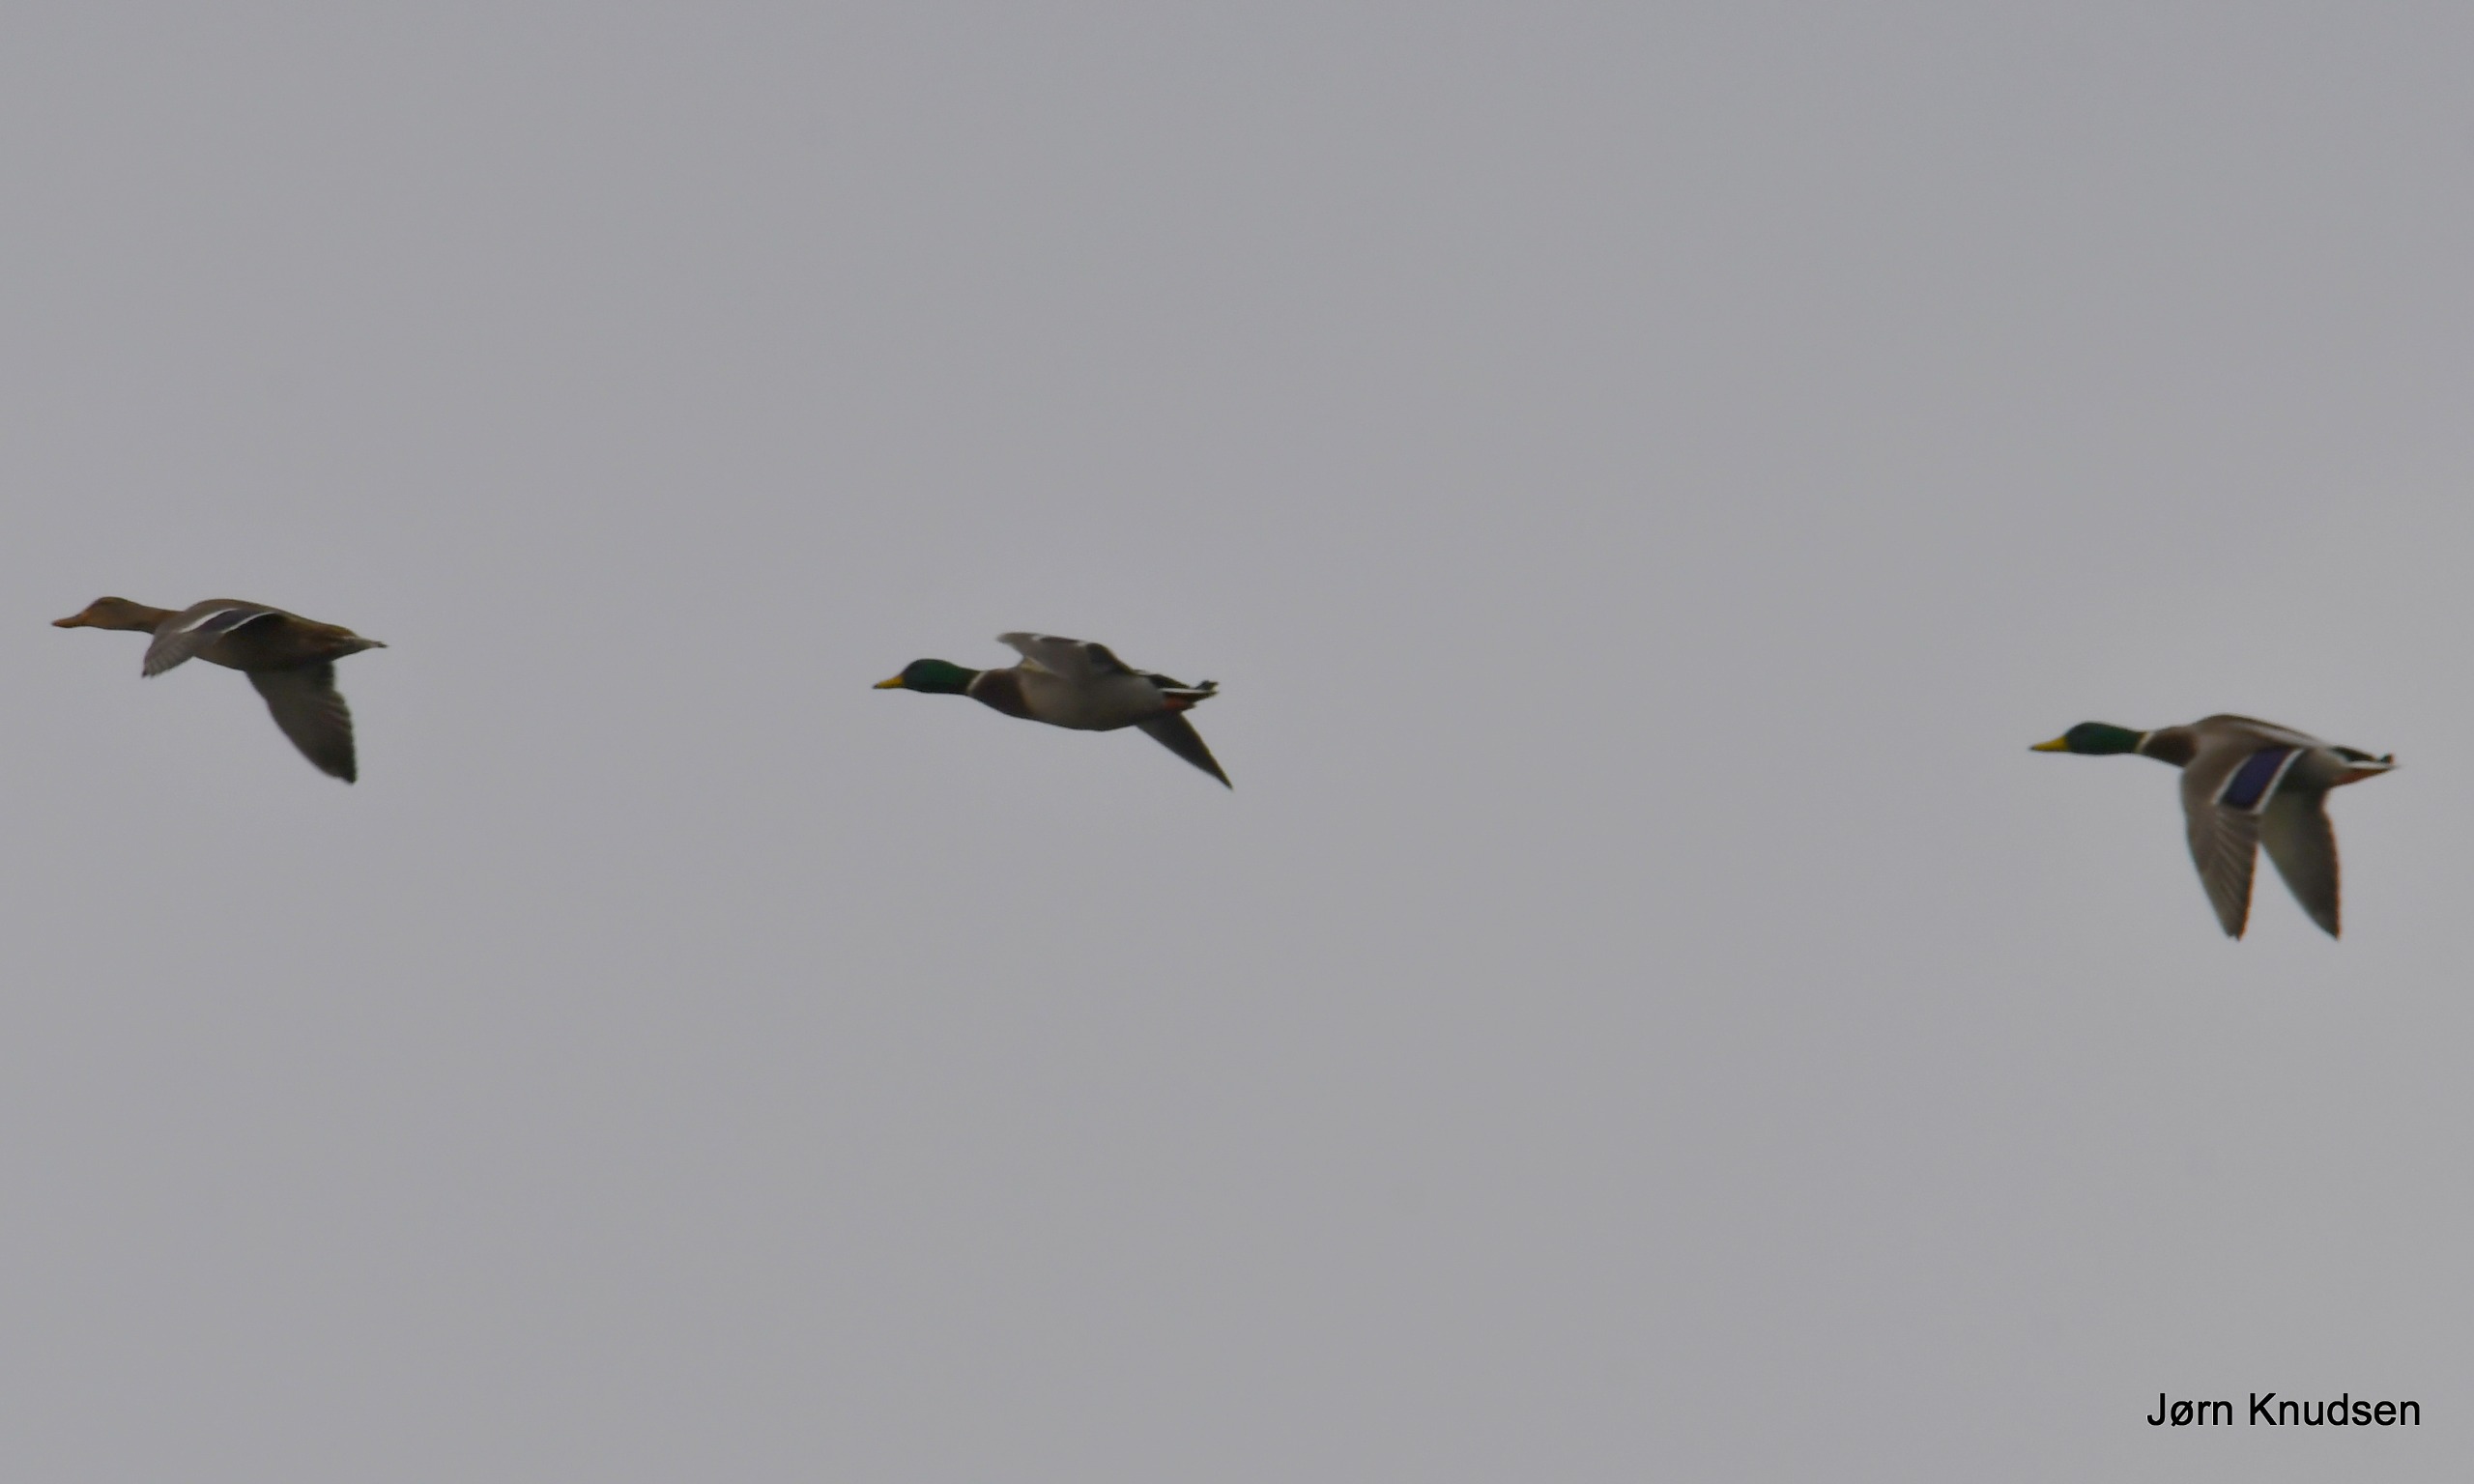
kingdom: Animalia
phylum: Chordata
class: Aves
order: Anseriformes
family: Anatidae
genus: Anas
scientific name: Anas platyrhynchos
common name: Gråand
